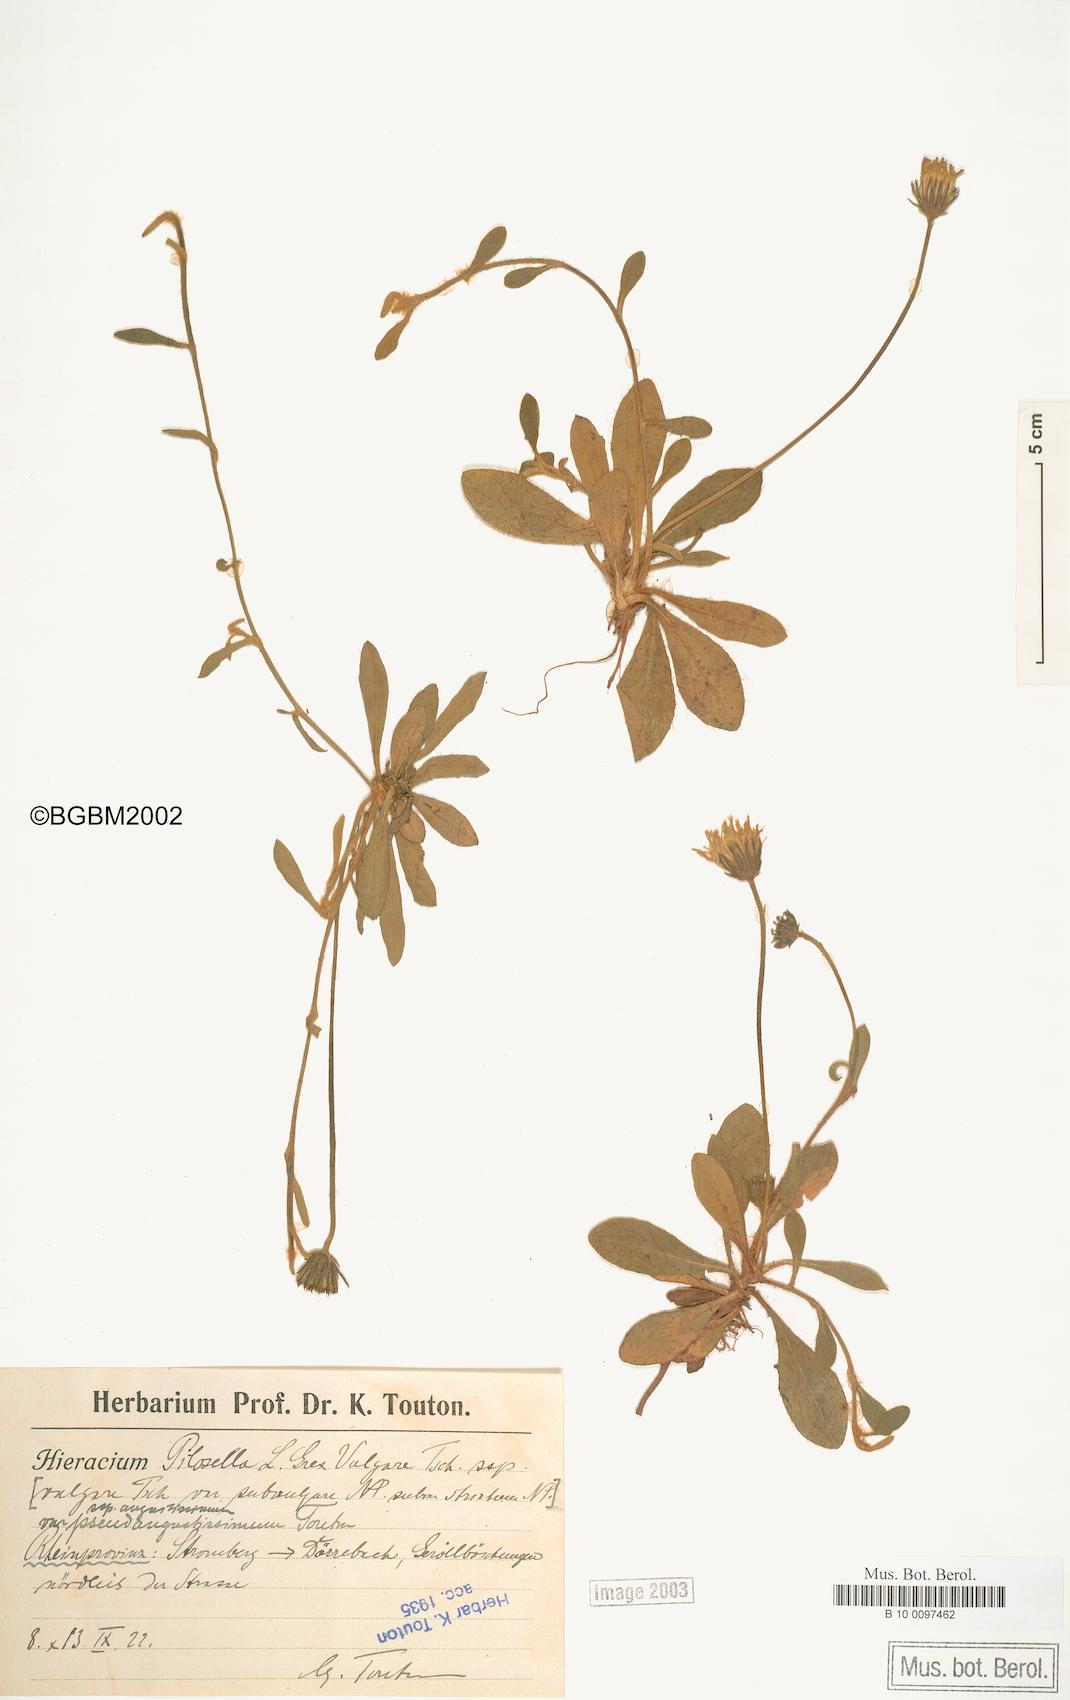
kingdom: Plantae
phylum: Tracheophyta
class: Magnoliopsida
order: Asterales
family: Asteraceae
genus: Pilosella
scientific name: Pilosella officinarum
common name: Mouse-ear hawkweed
